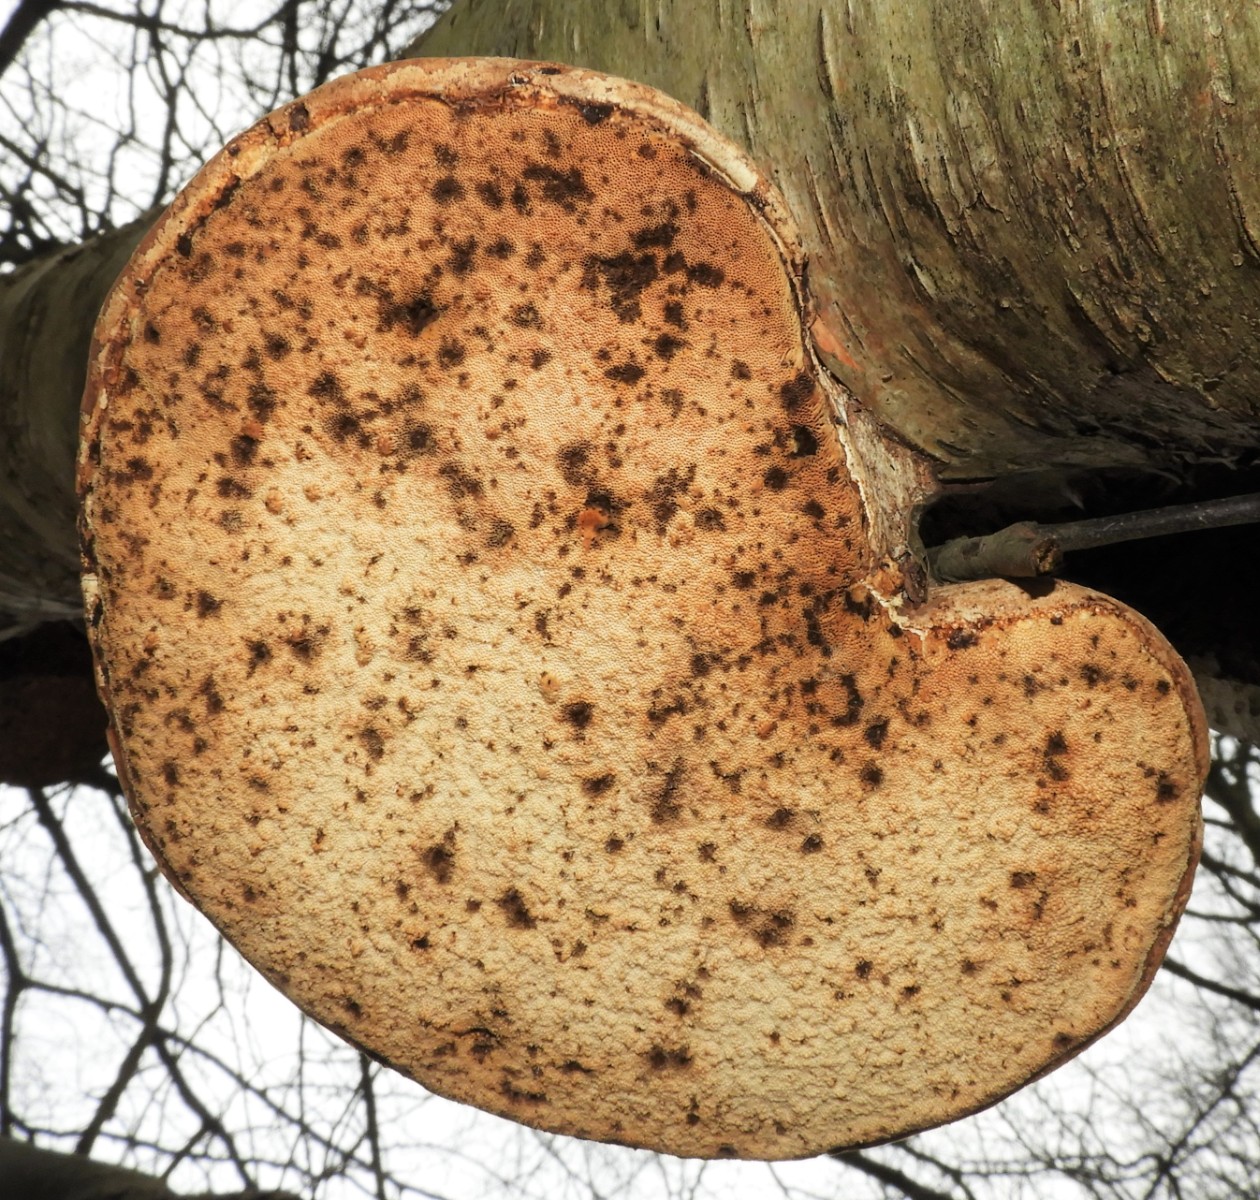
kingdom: Fungi
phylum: Basidiomycota
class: Agaricomycetes
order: Polyporales
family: Fomitopsidaceae
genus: Fomitopsis
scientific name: Fomitopsis betulina
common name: birkeporesvamp
